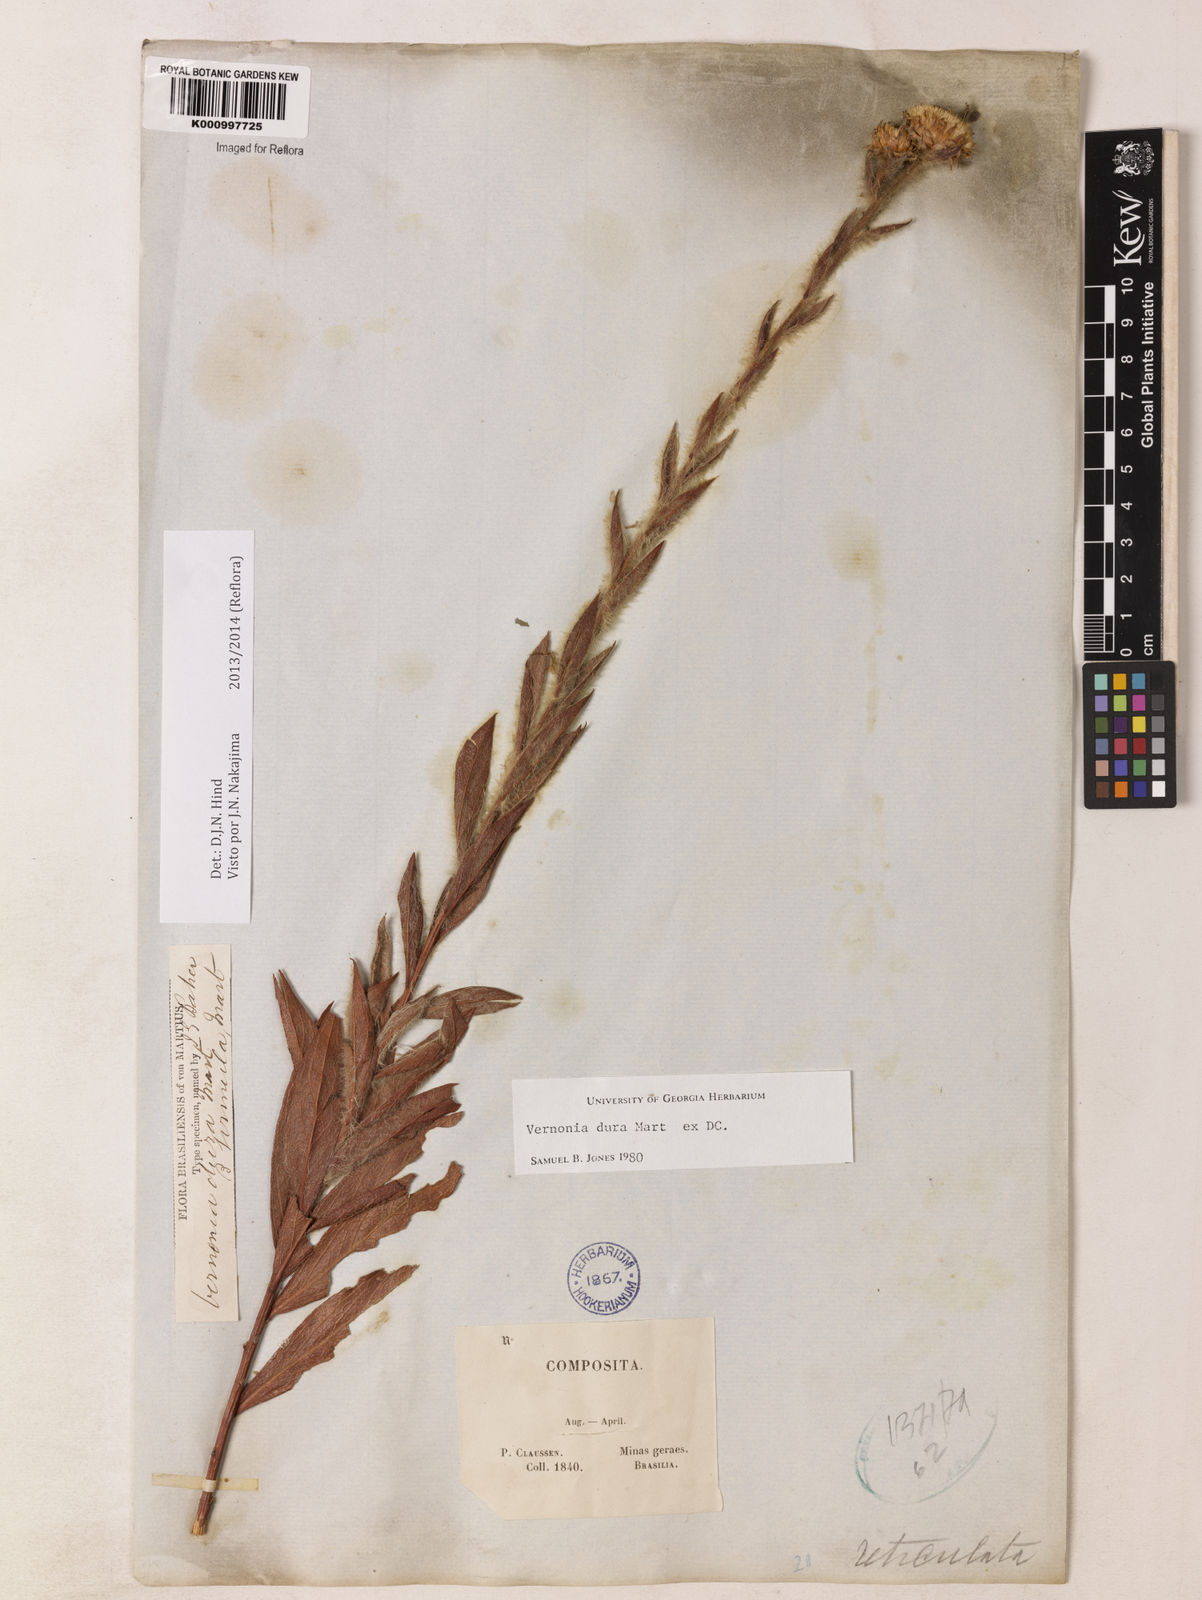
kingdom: Plantae
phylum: Tracheophyta
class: Magnoliopsida
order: Asterales
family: Asteraceae
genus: Lessingianthus
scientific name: Lessingianthus durus
